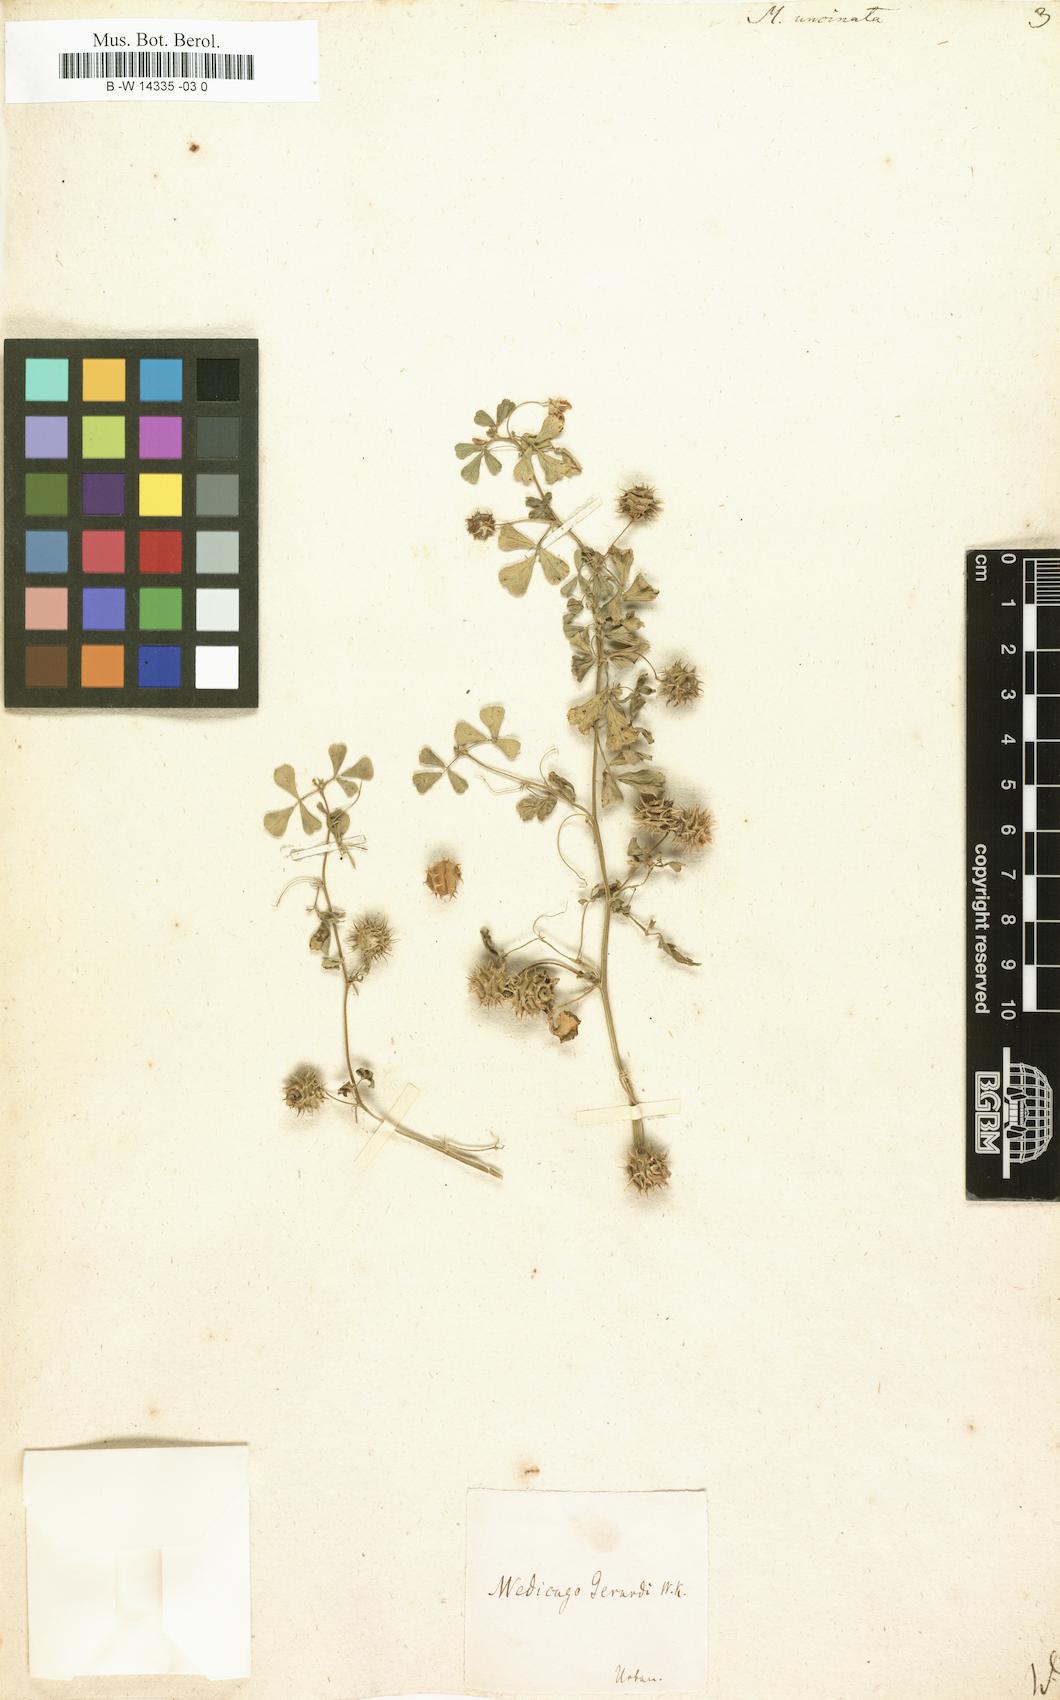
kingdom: Plantae
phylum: Tracheophyta
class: Magnoliopsida
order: Fabales
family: Fabaceae
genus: Medicago
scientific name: Medicago truncatula
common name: Strong-spined medick
